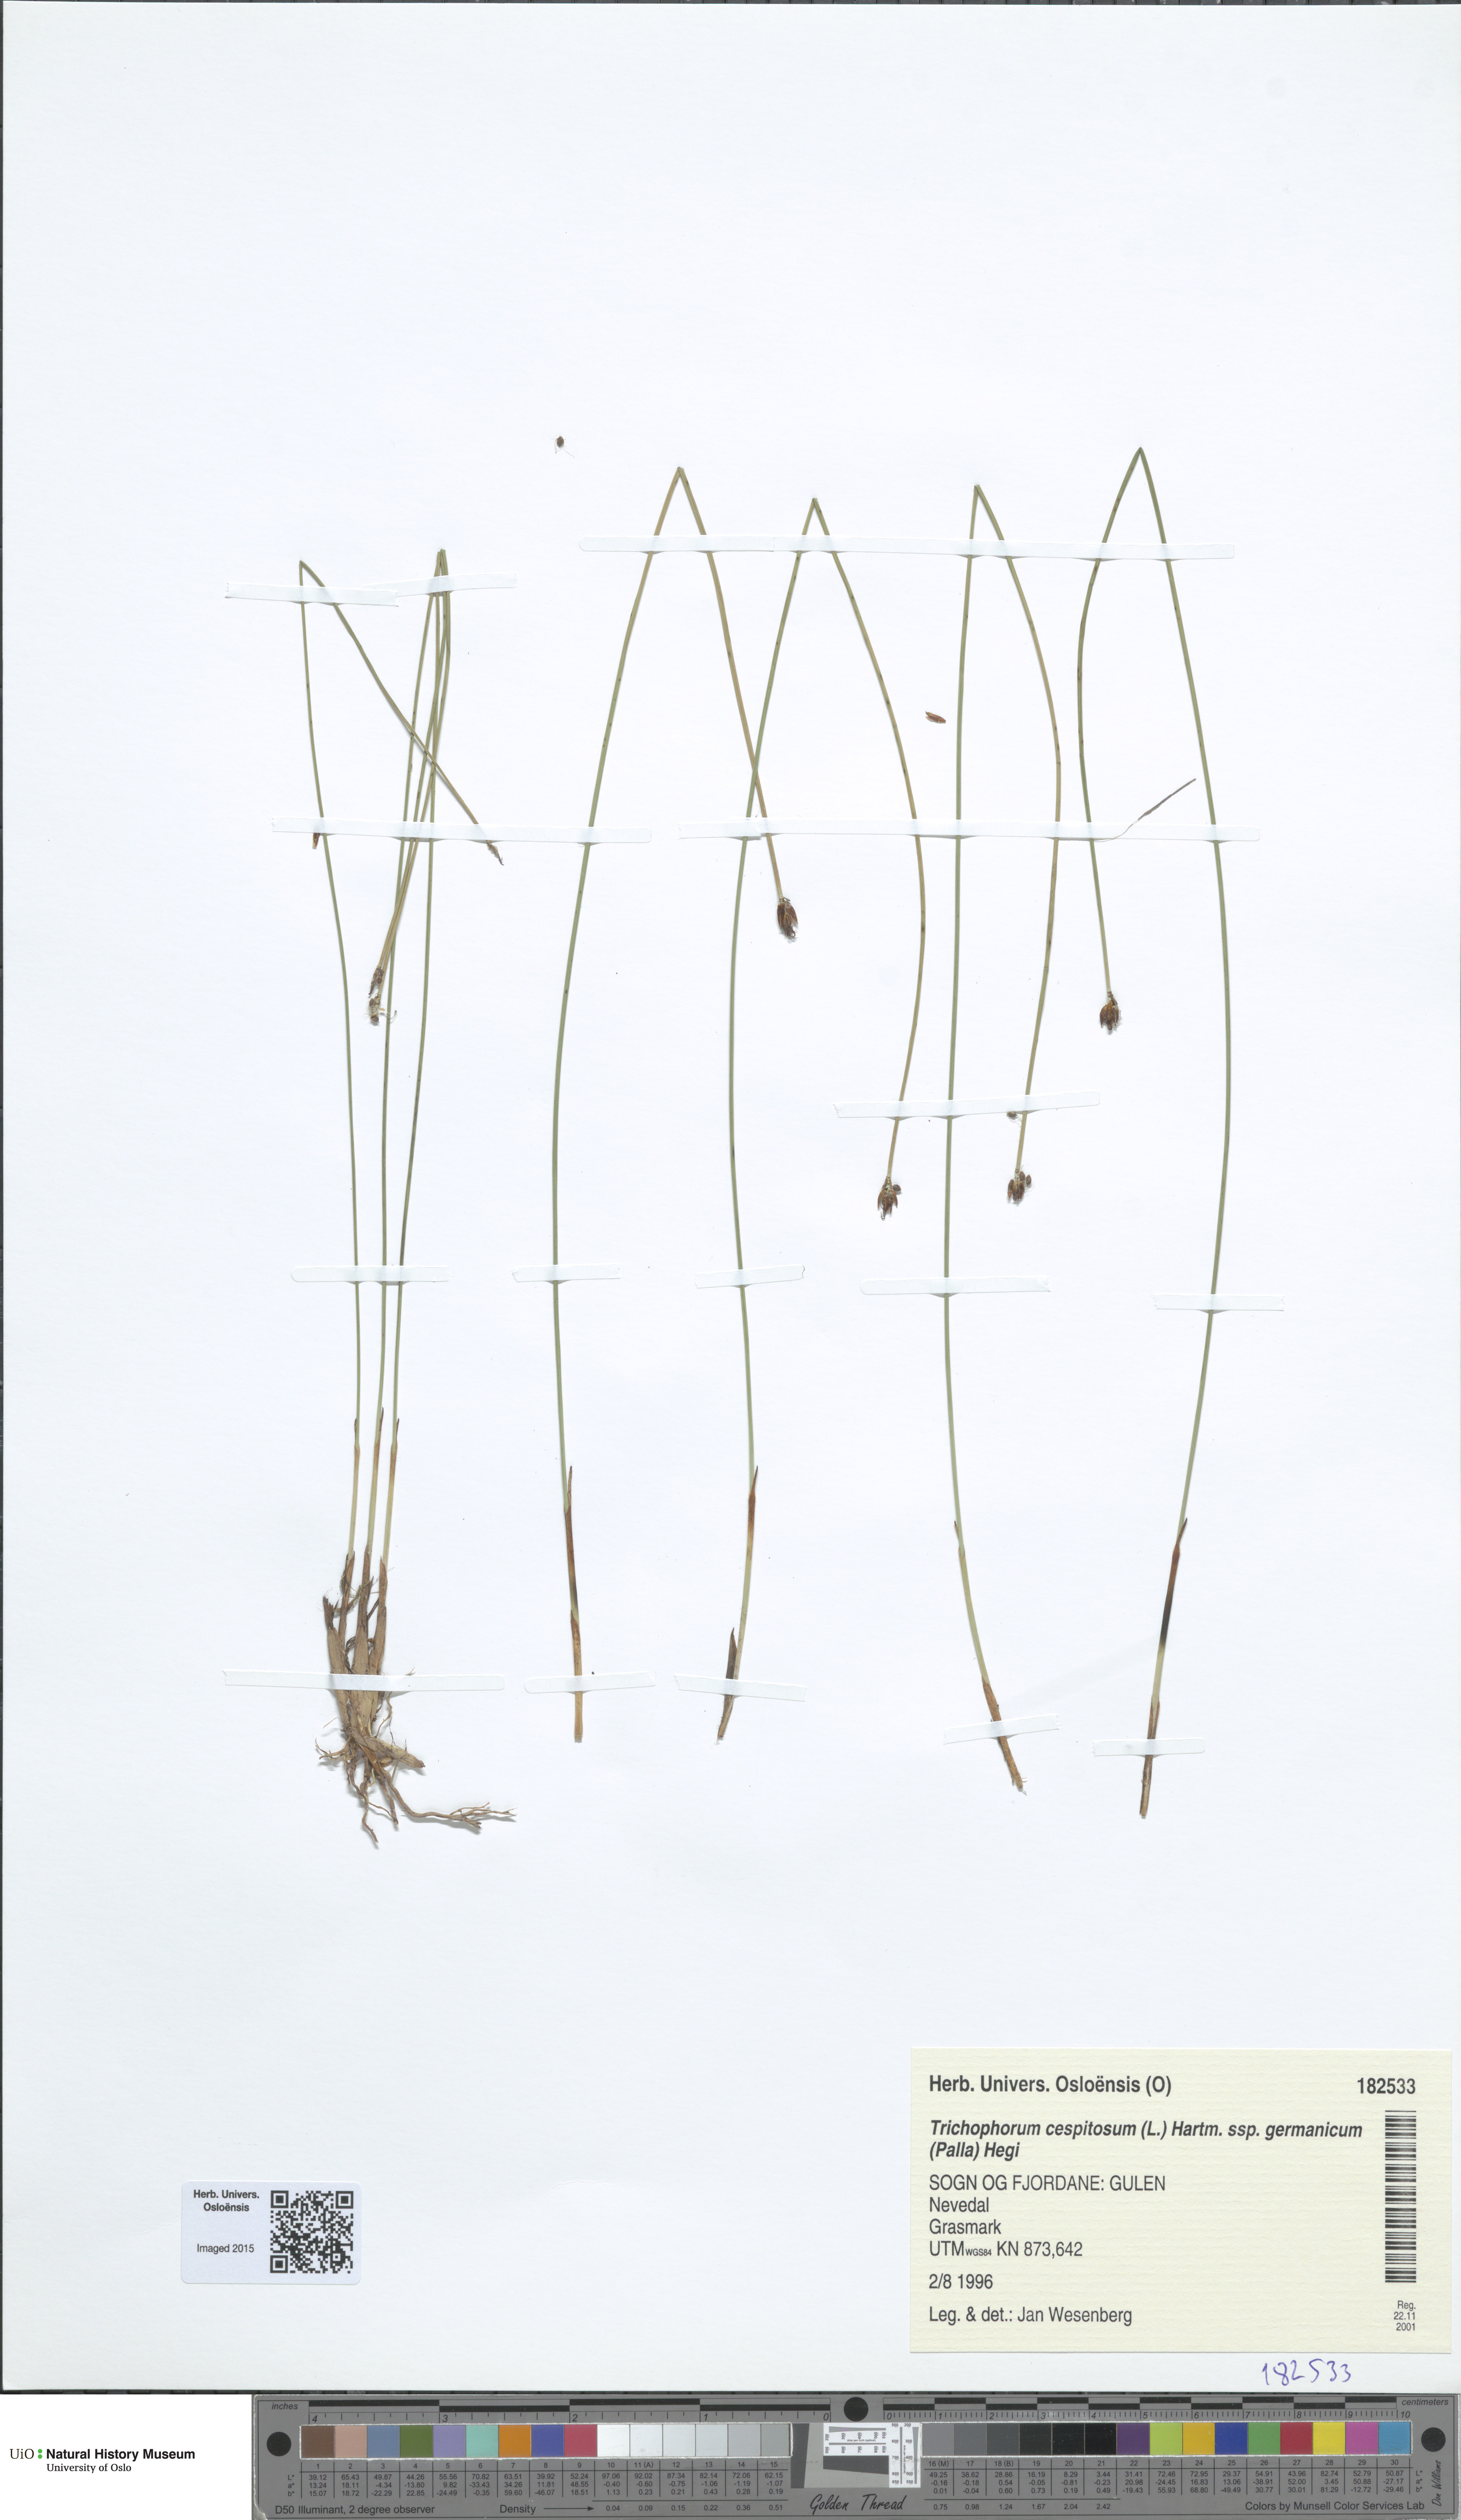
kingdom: Plantae
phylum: Tracheophyta
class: Liliopsida
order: Poales
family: Cyperaceae
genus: Trichophorum
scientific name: Trichophorum cespitosum
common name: Cespitose bulrush
